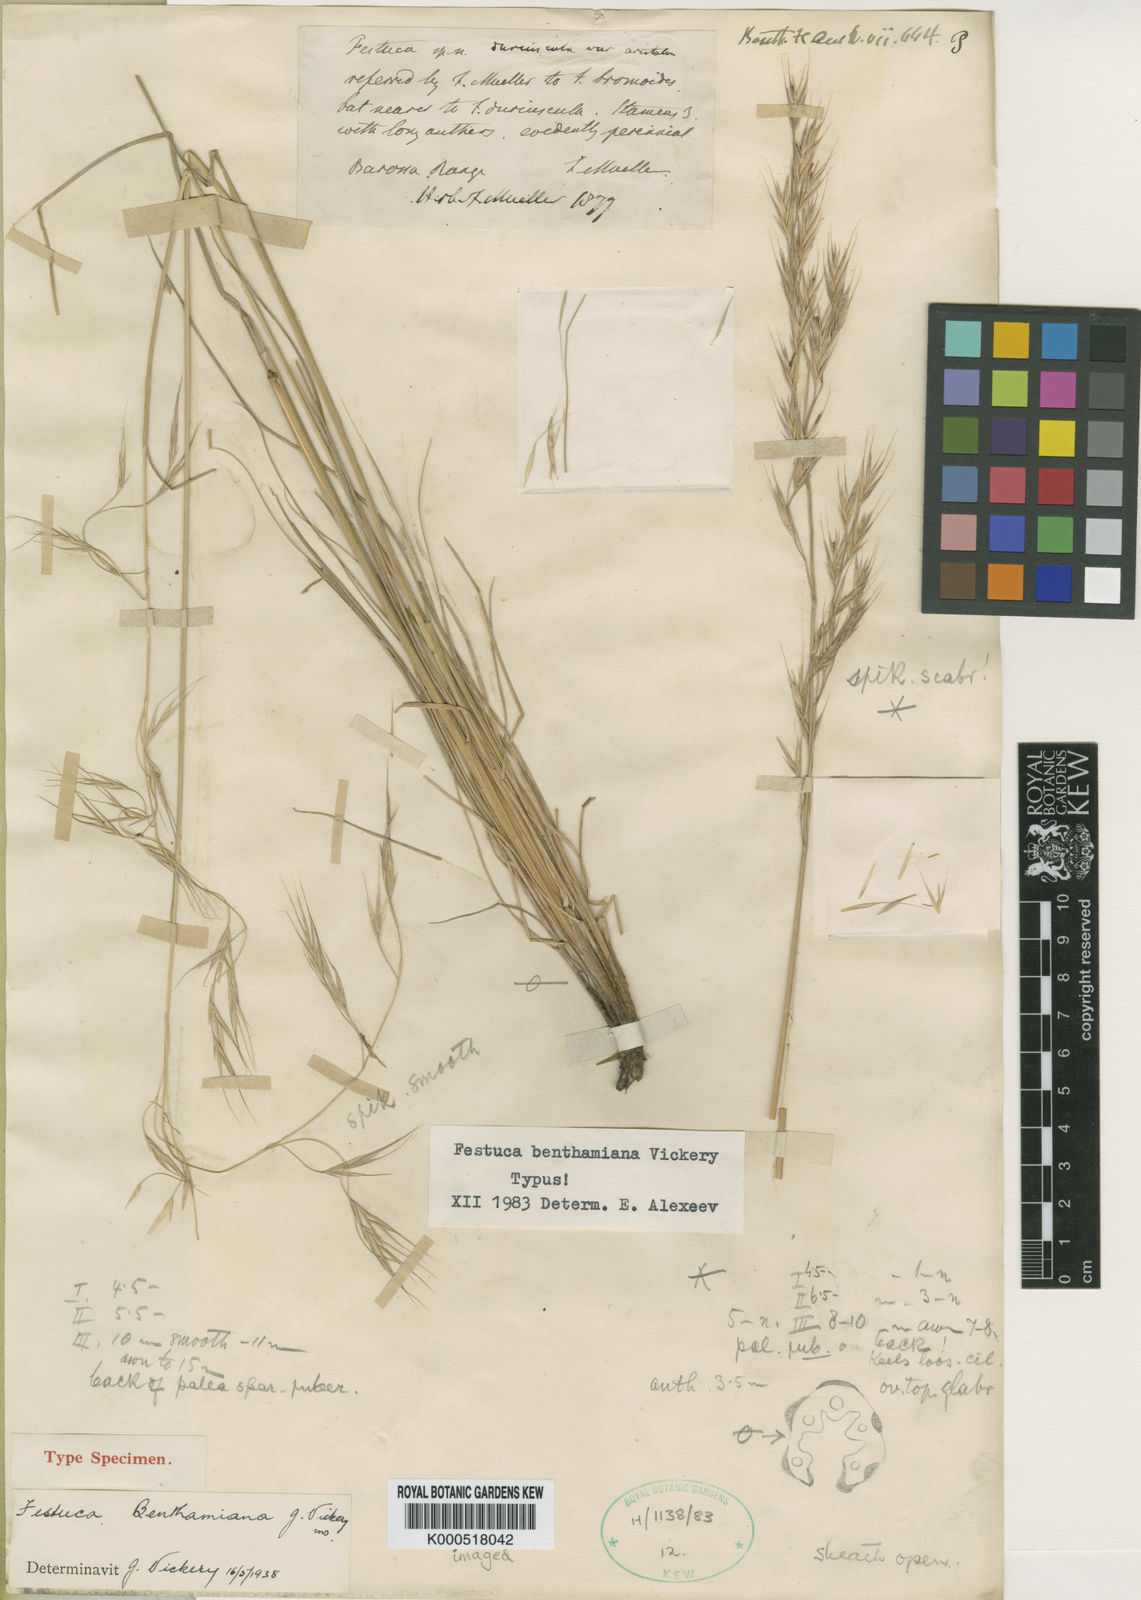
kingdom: Plantae
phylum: Tracheophyta
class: Liliopsida
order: Poales
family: Poaceae
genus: Festuca
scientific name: Festuca benthamiana
